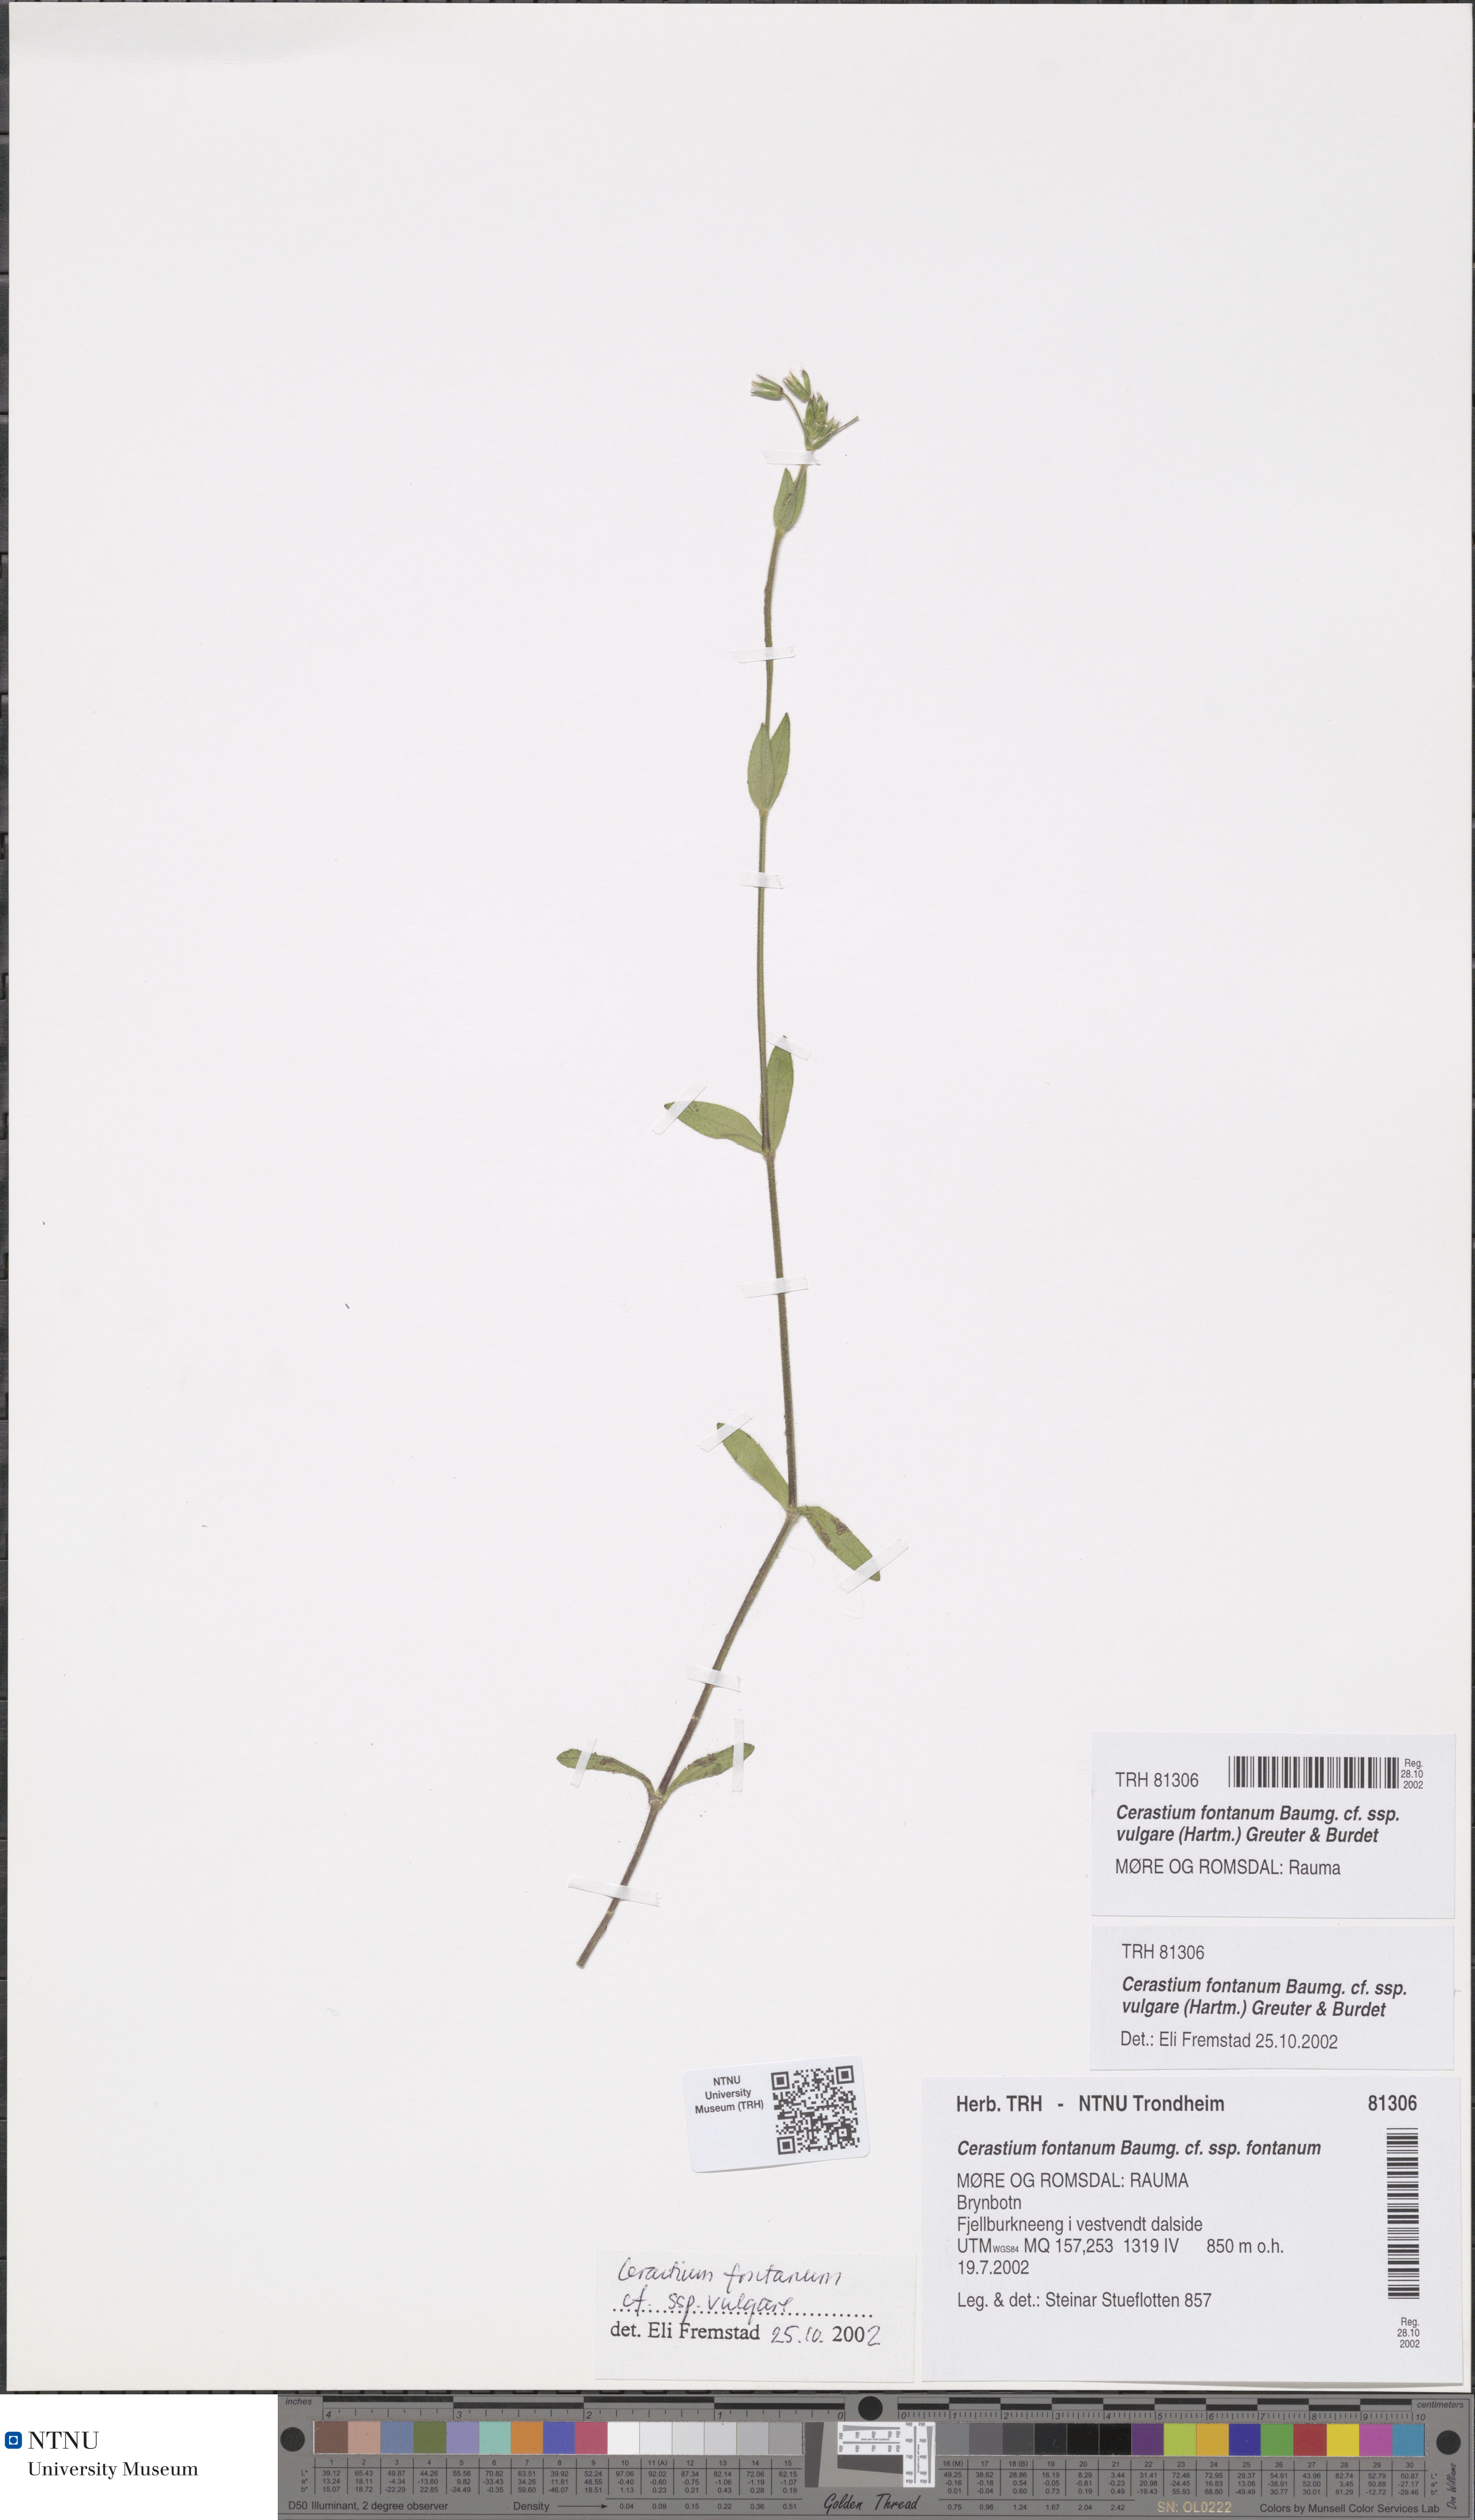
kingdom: Plantae
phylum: Tracheophyta
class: Magnoliopsida
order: Caryophyllales
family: Caryophyllaceae
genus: Cerastium
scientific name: Cerastium holosteoides
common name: Big chickweed
